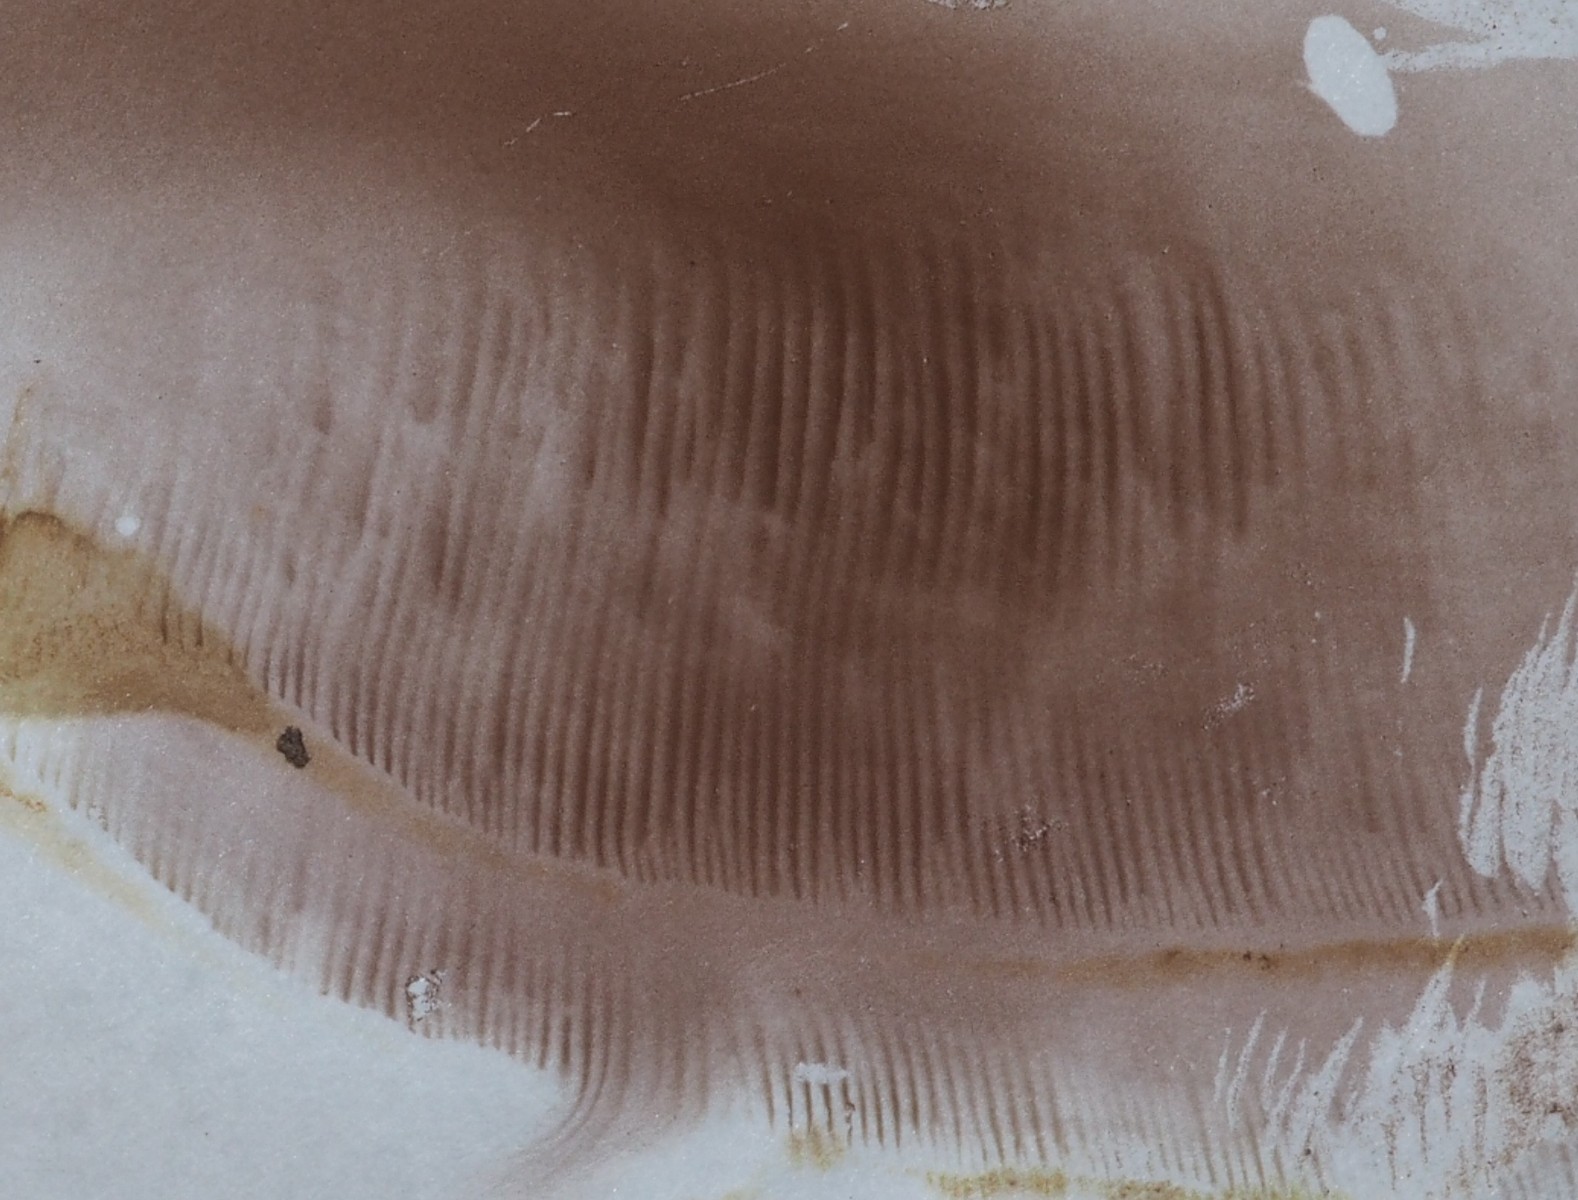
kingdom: Fungi
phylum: Basidiomycota
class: Agaricomycetes
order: Boletales
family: Paxillaceae
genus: Paxillus
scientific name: Paxillus obscurisporus
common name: mahognisporet netbladhat
